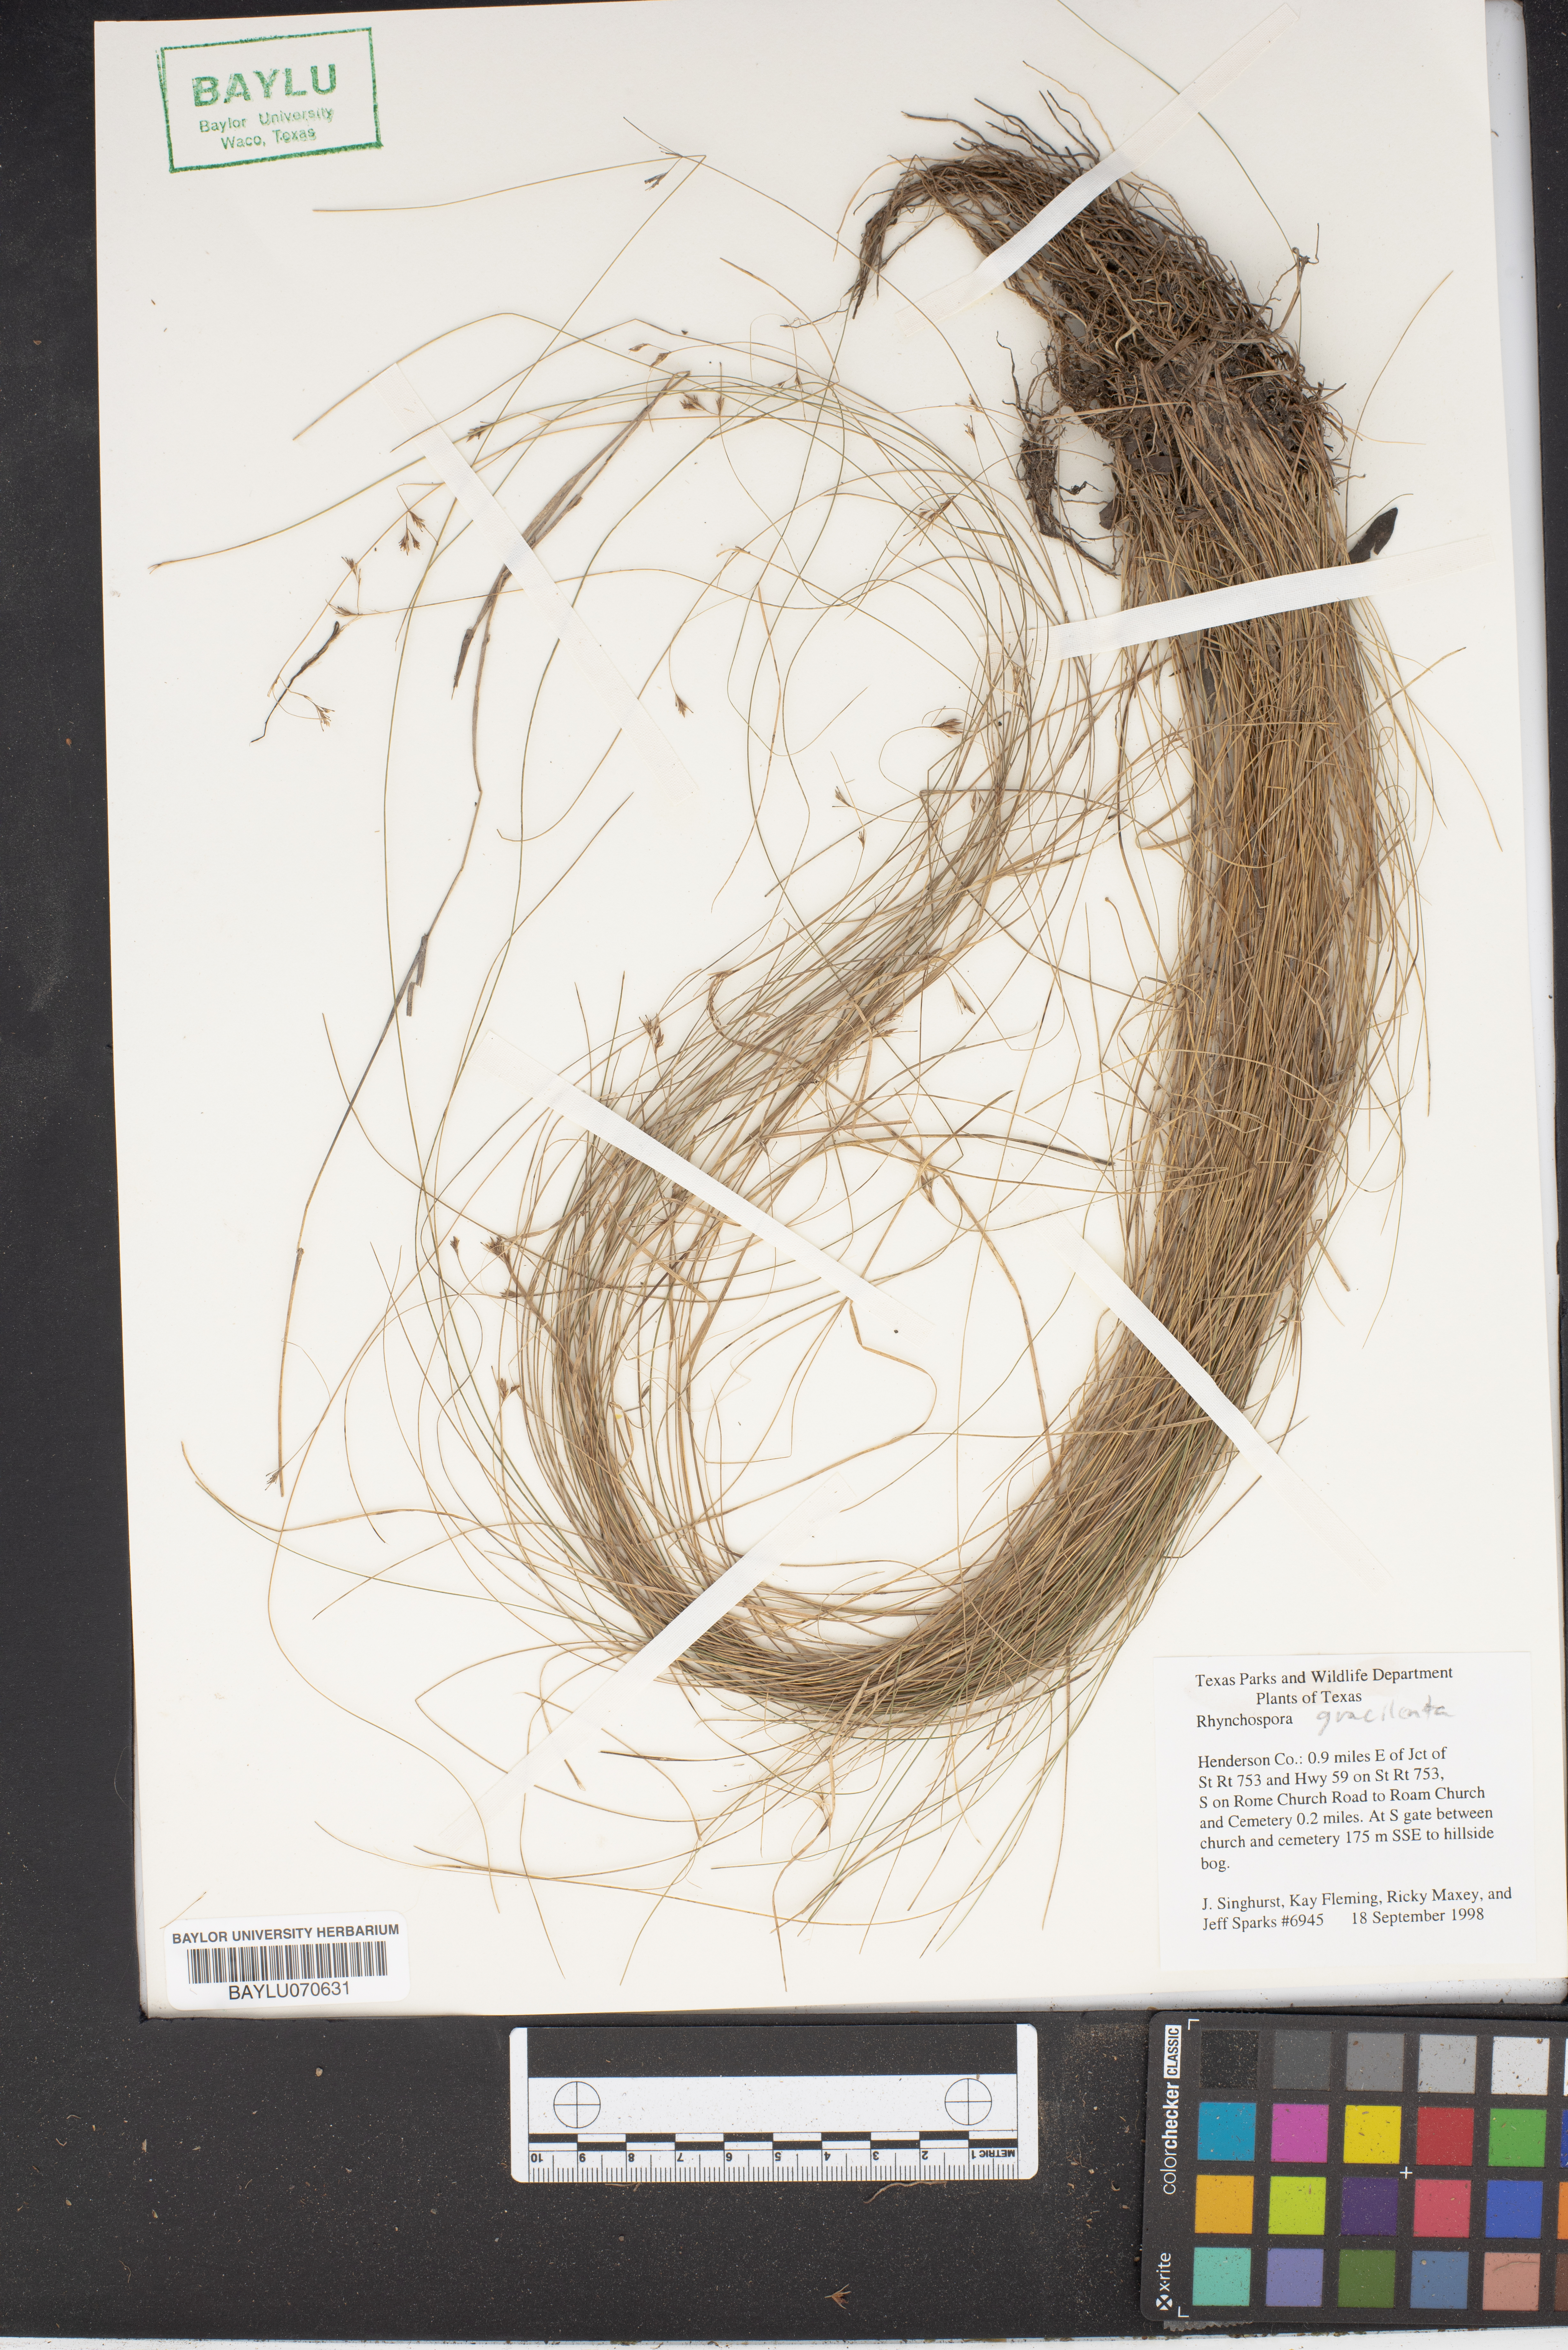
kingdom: Plantae
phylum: Tracheophyta
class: Liliopsida
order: Poales
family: Cyperaceae
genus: Rhynchospora
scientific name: Rhynchospora gracilenta
